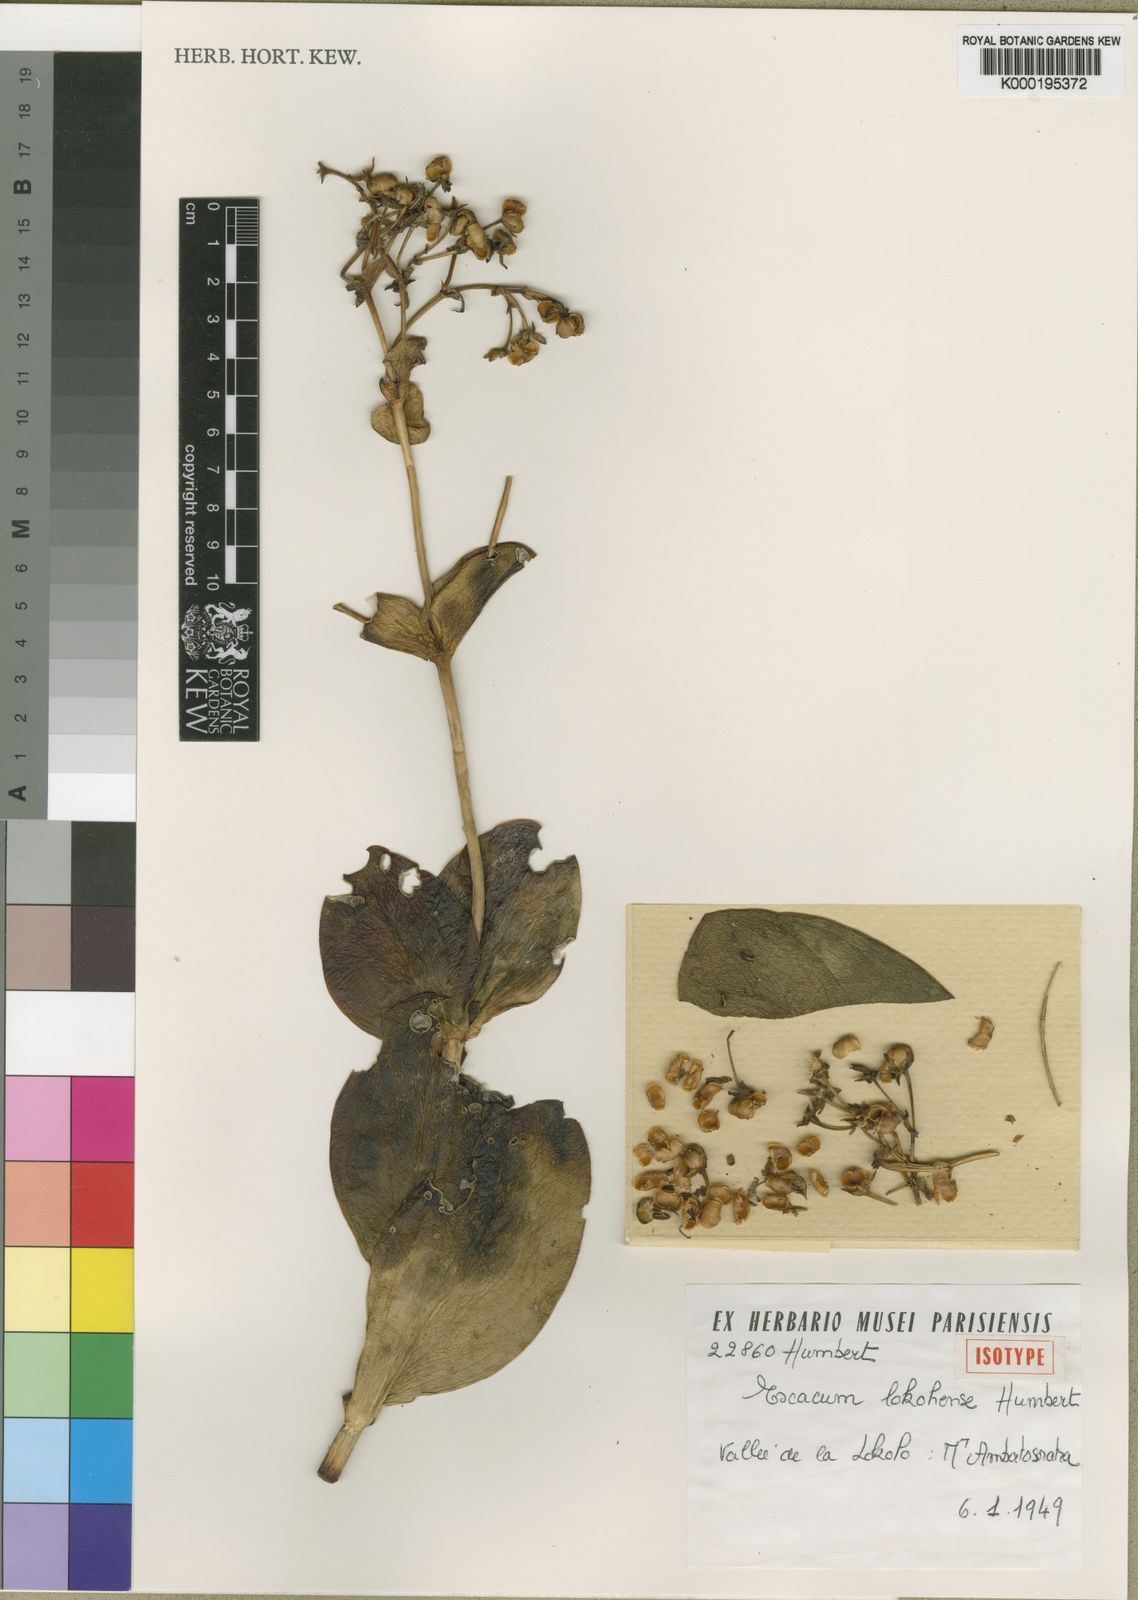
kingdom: Plantae
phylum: Tracheophyta
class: Magnoliopsida
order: Gentianales
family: Gentianaceae
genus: Exacum
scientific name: Exacum lokohense
